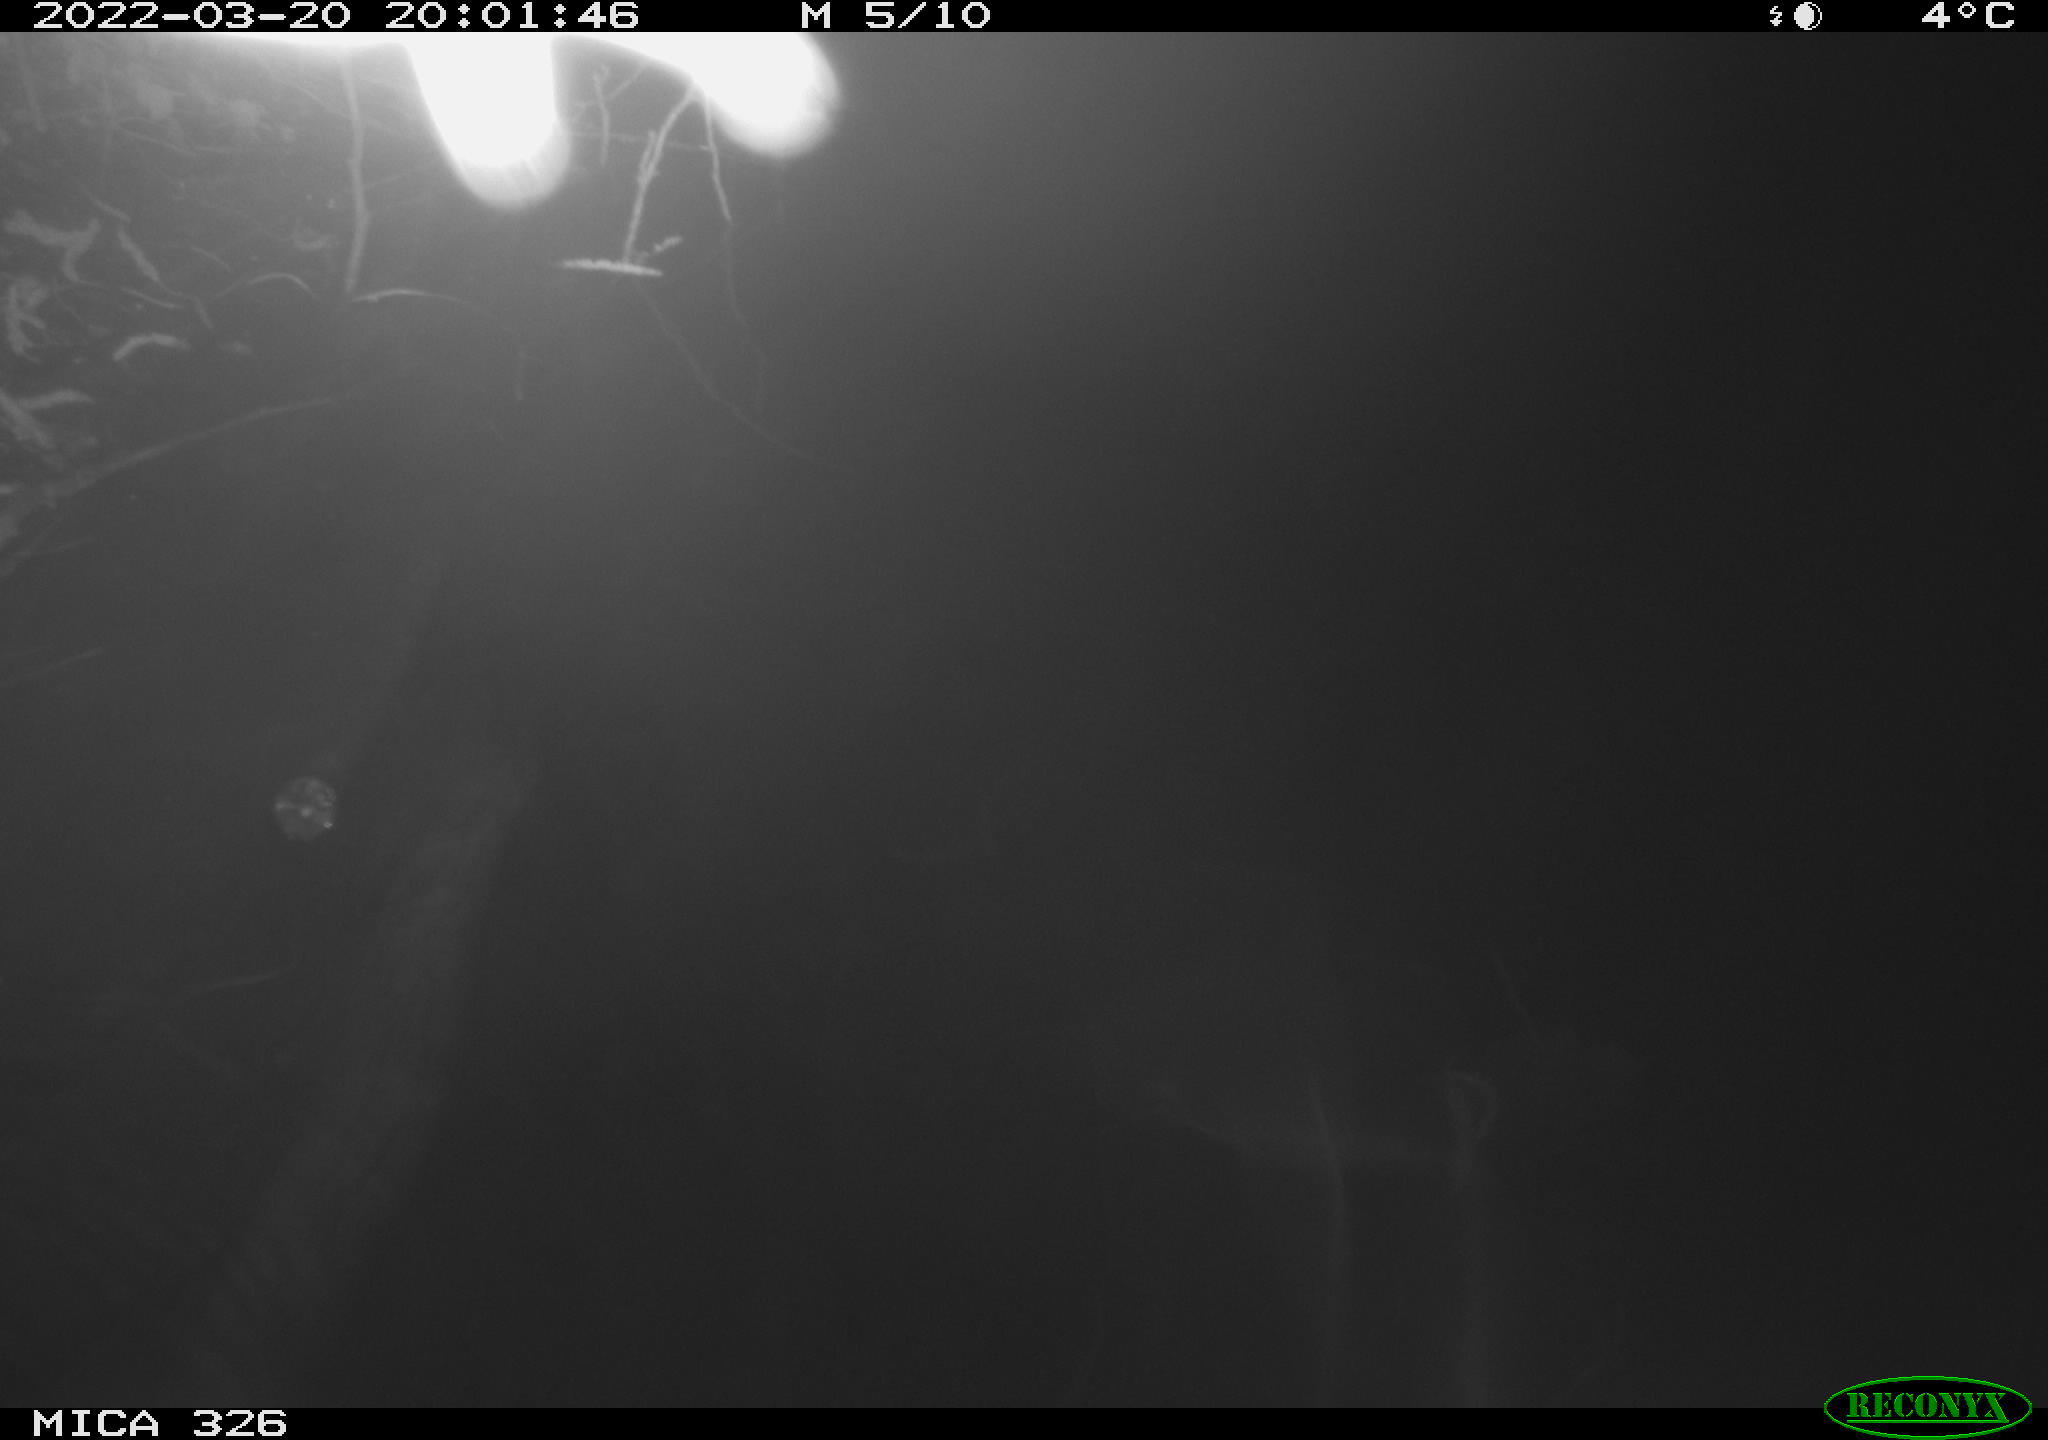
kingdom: Animalia
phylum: Chordata
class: Mammalia
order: Rodentia
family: Muridae
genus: Rattus
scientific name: Rattus norvegicus
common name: Brown rat
